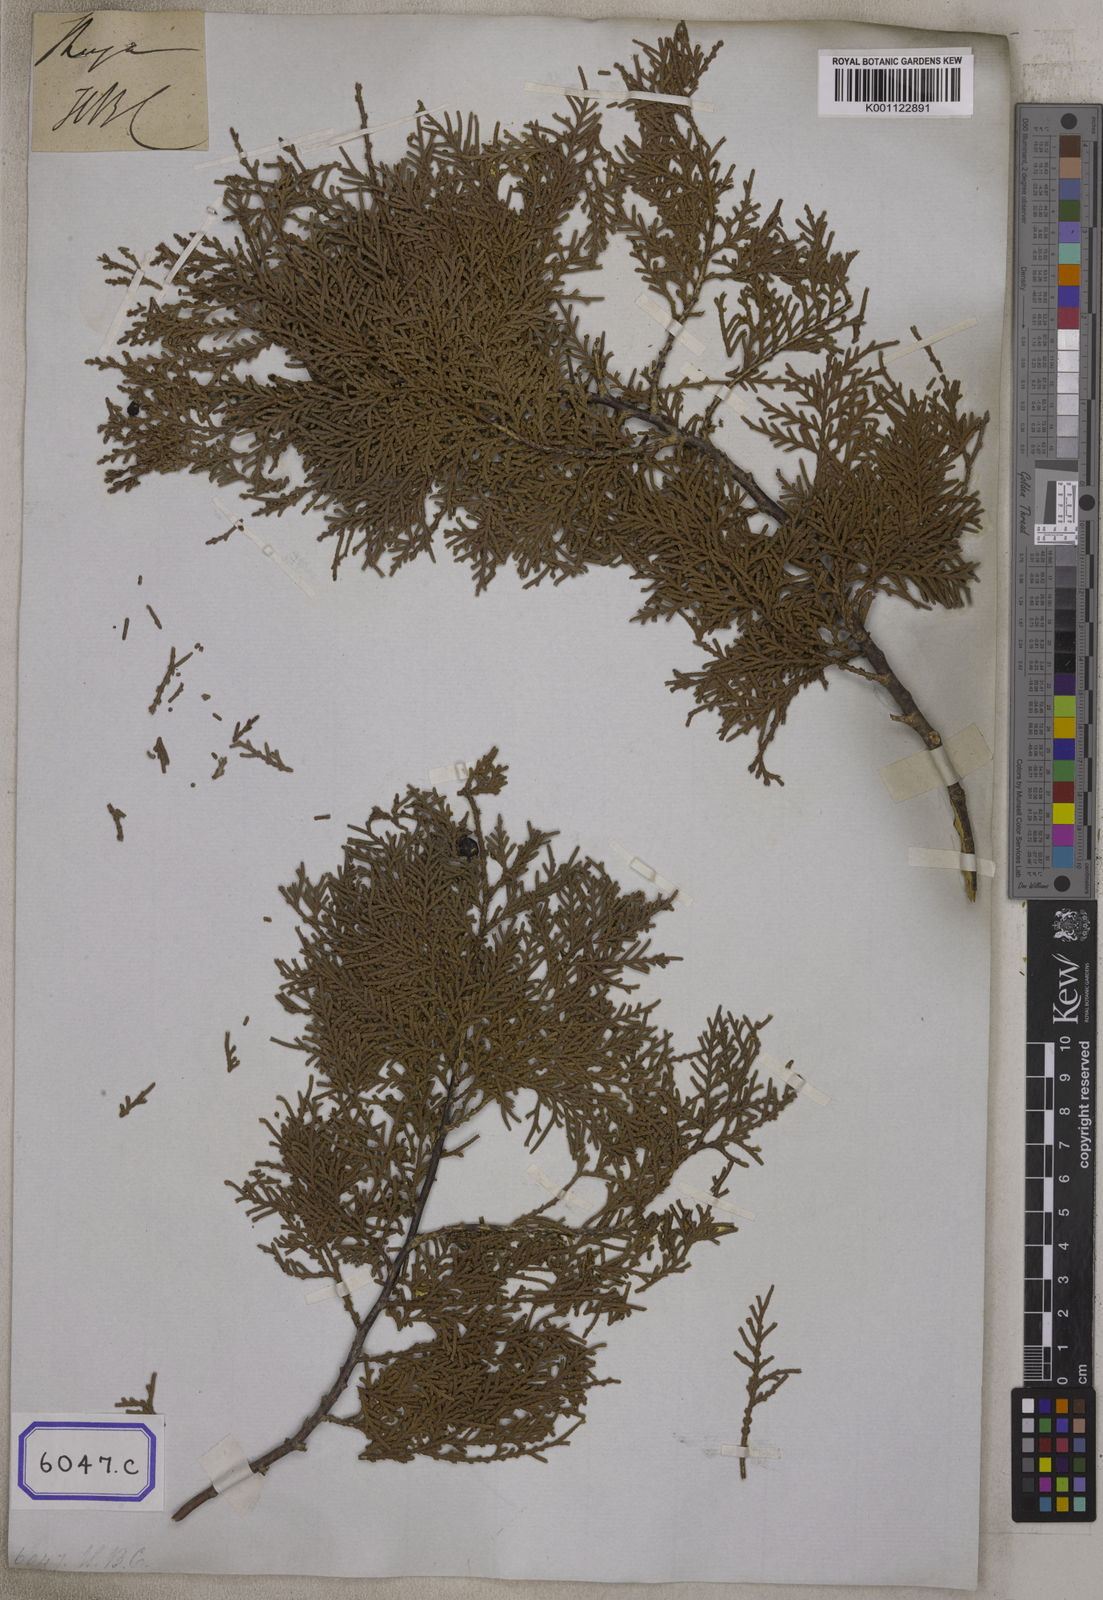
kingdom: Plantae
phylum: Tracheophyta
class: Pinopsida
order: Pinales
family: Cupressaceae
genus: Platycladus
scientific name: Platycladus orientalis
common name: Chinese thuja
